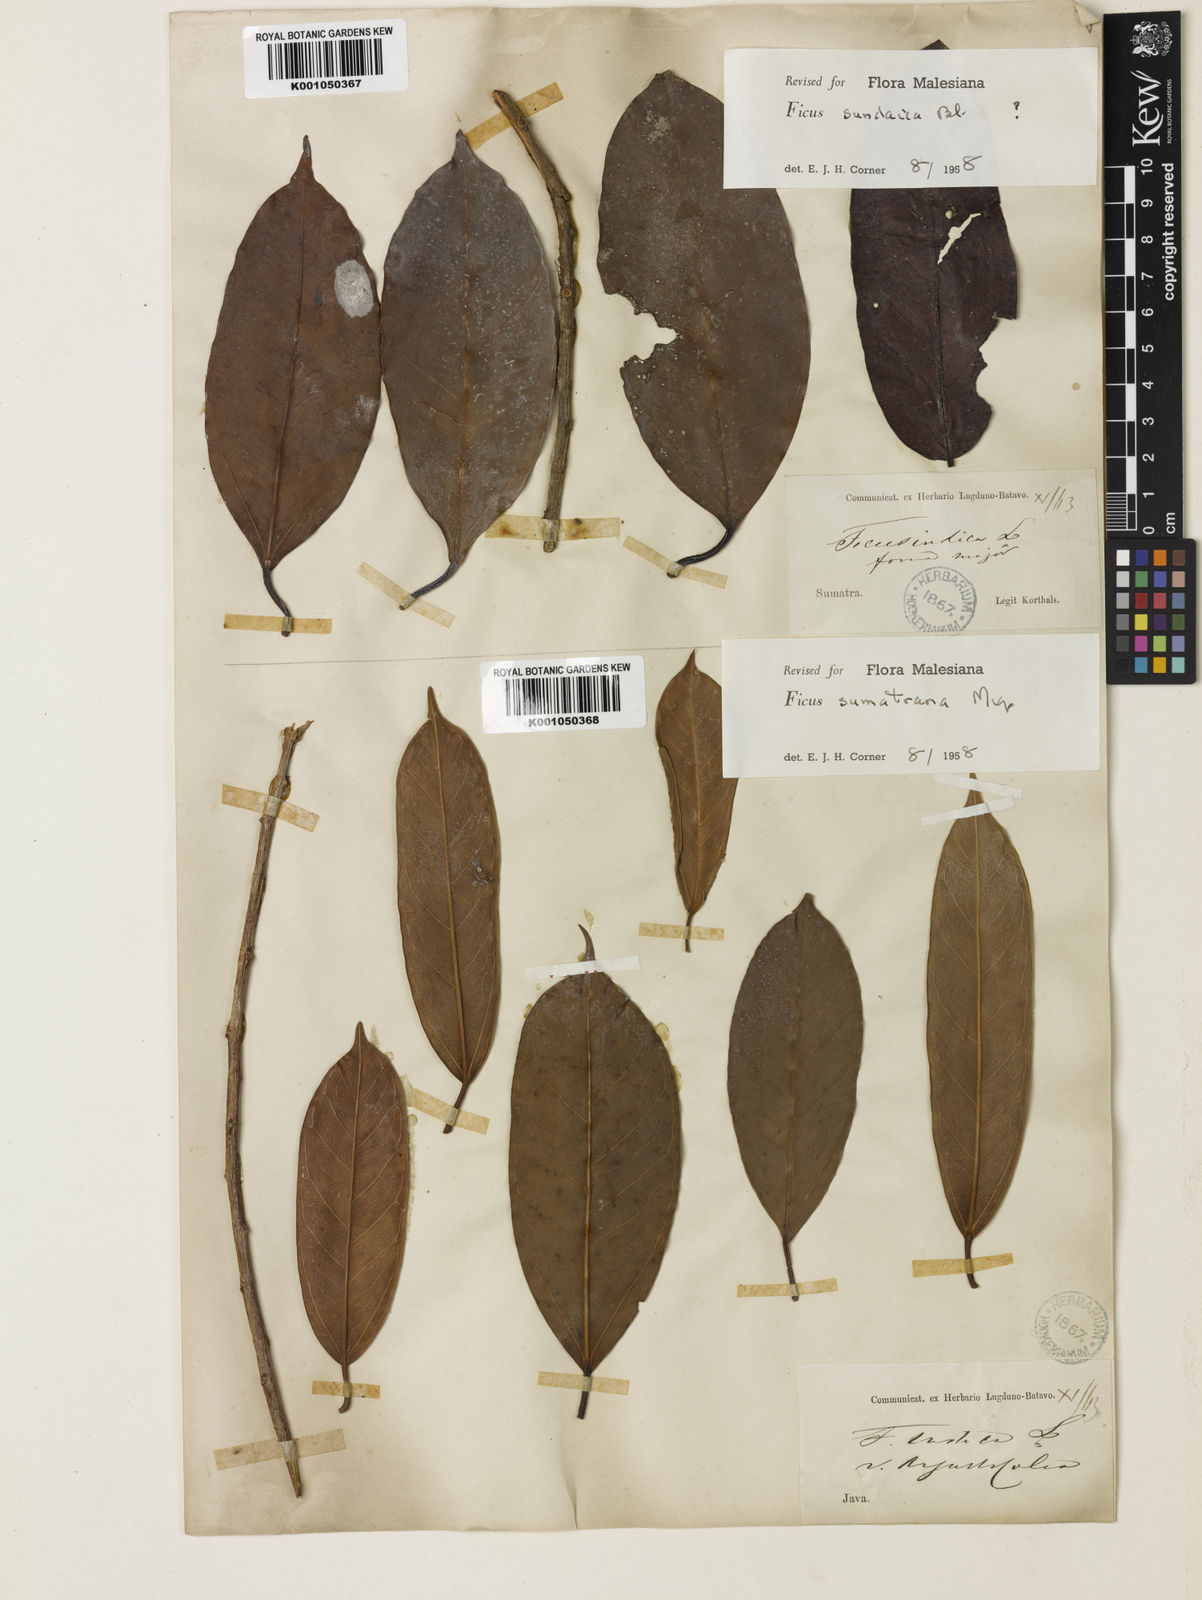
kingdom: Plantae
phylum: Tracheophyta
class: Magnoliopsida
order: Rosales
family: Moraceae
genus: Ficus
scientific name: Ficus sumatrana
